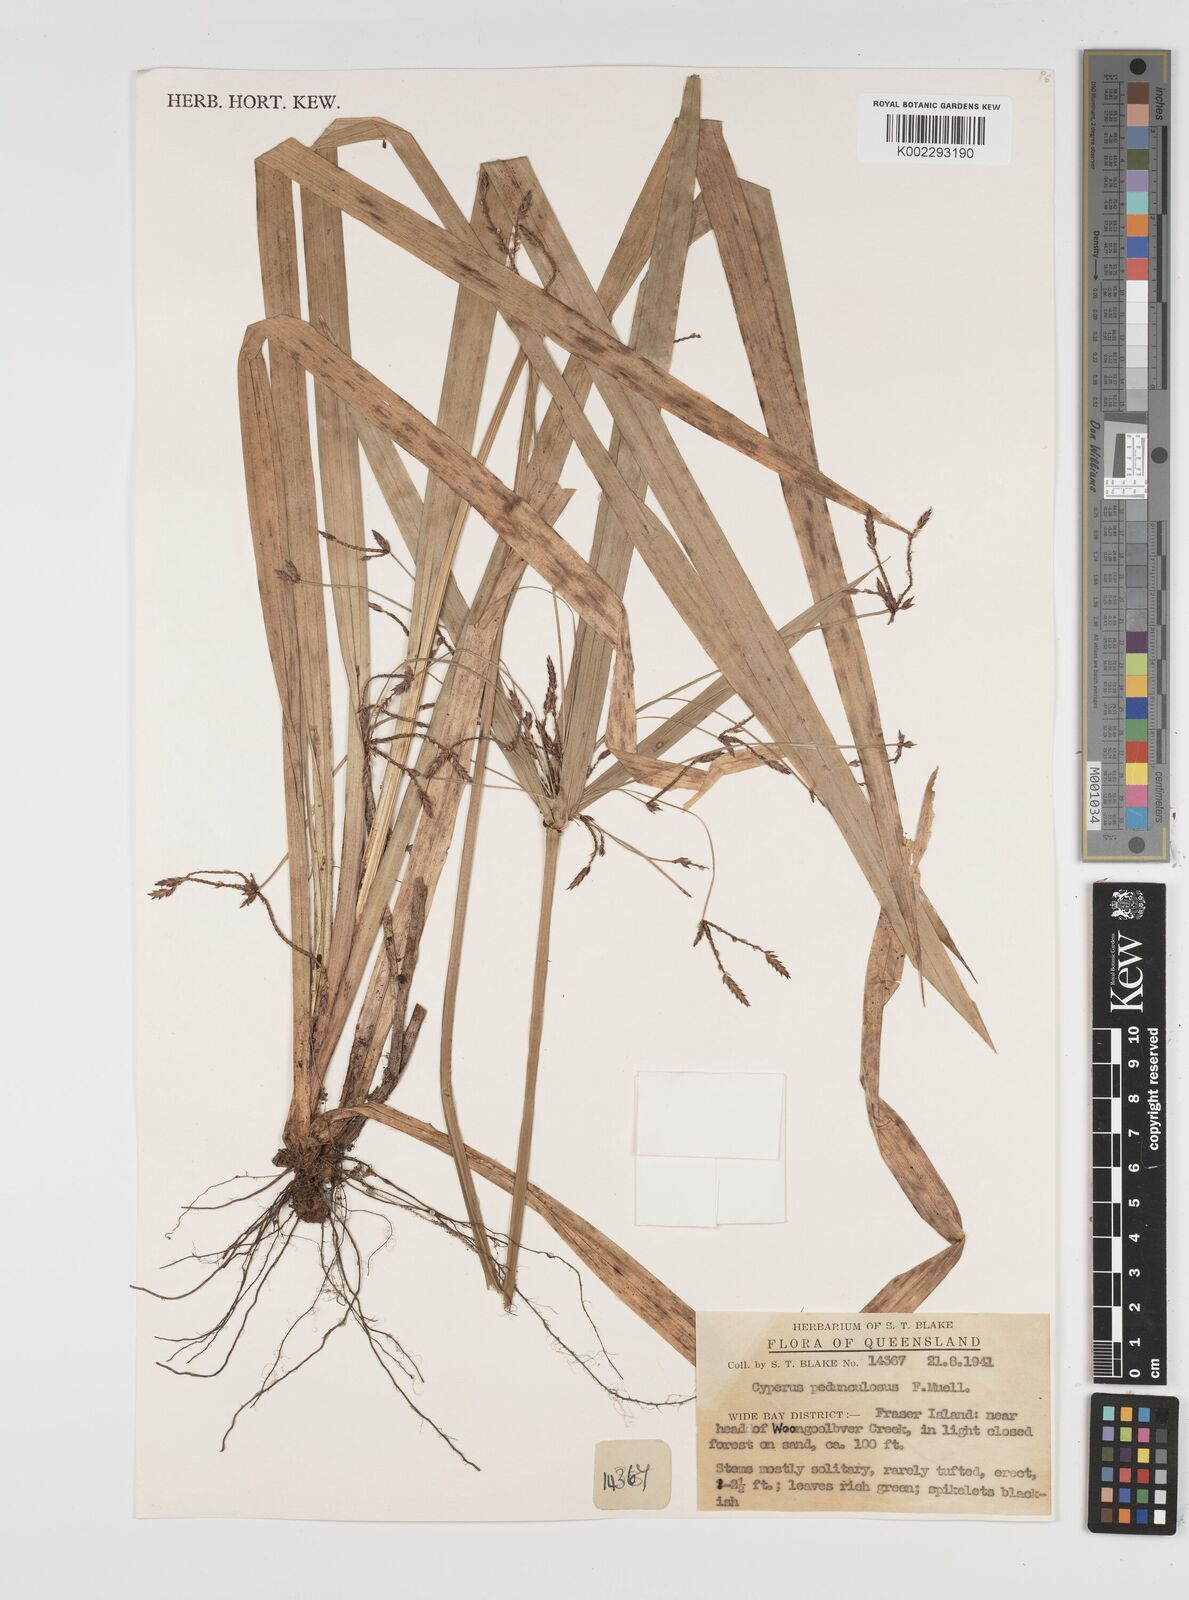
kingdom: Plantae
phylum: Tracheophyta
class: Liliopsida
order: Poales
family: Cyperaceae
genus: Cyperus
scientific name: Cyperus pedunculosus
